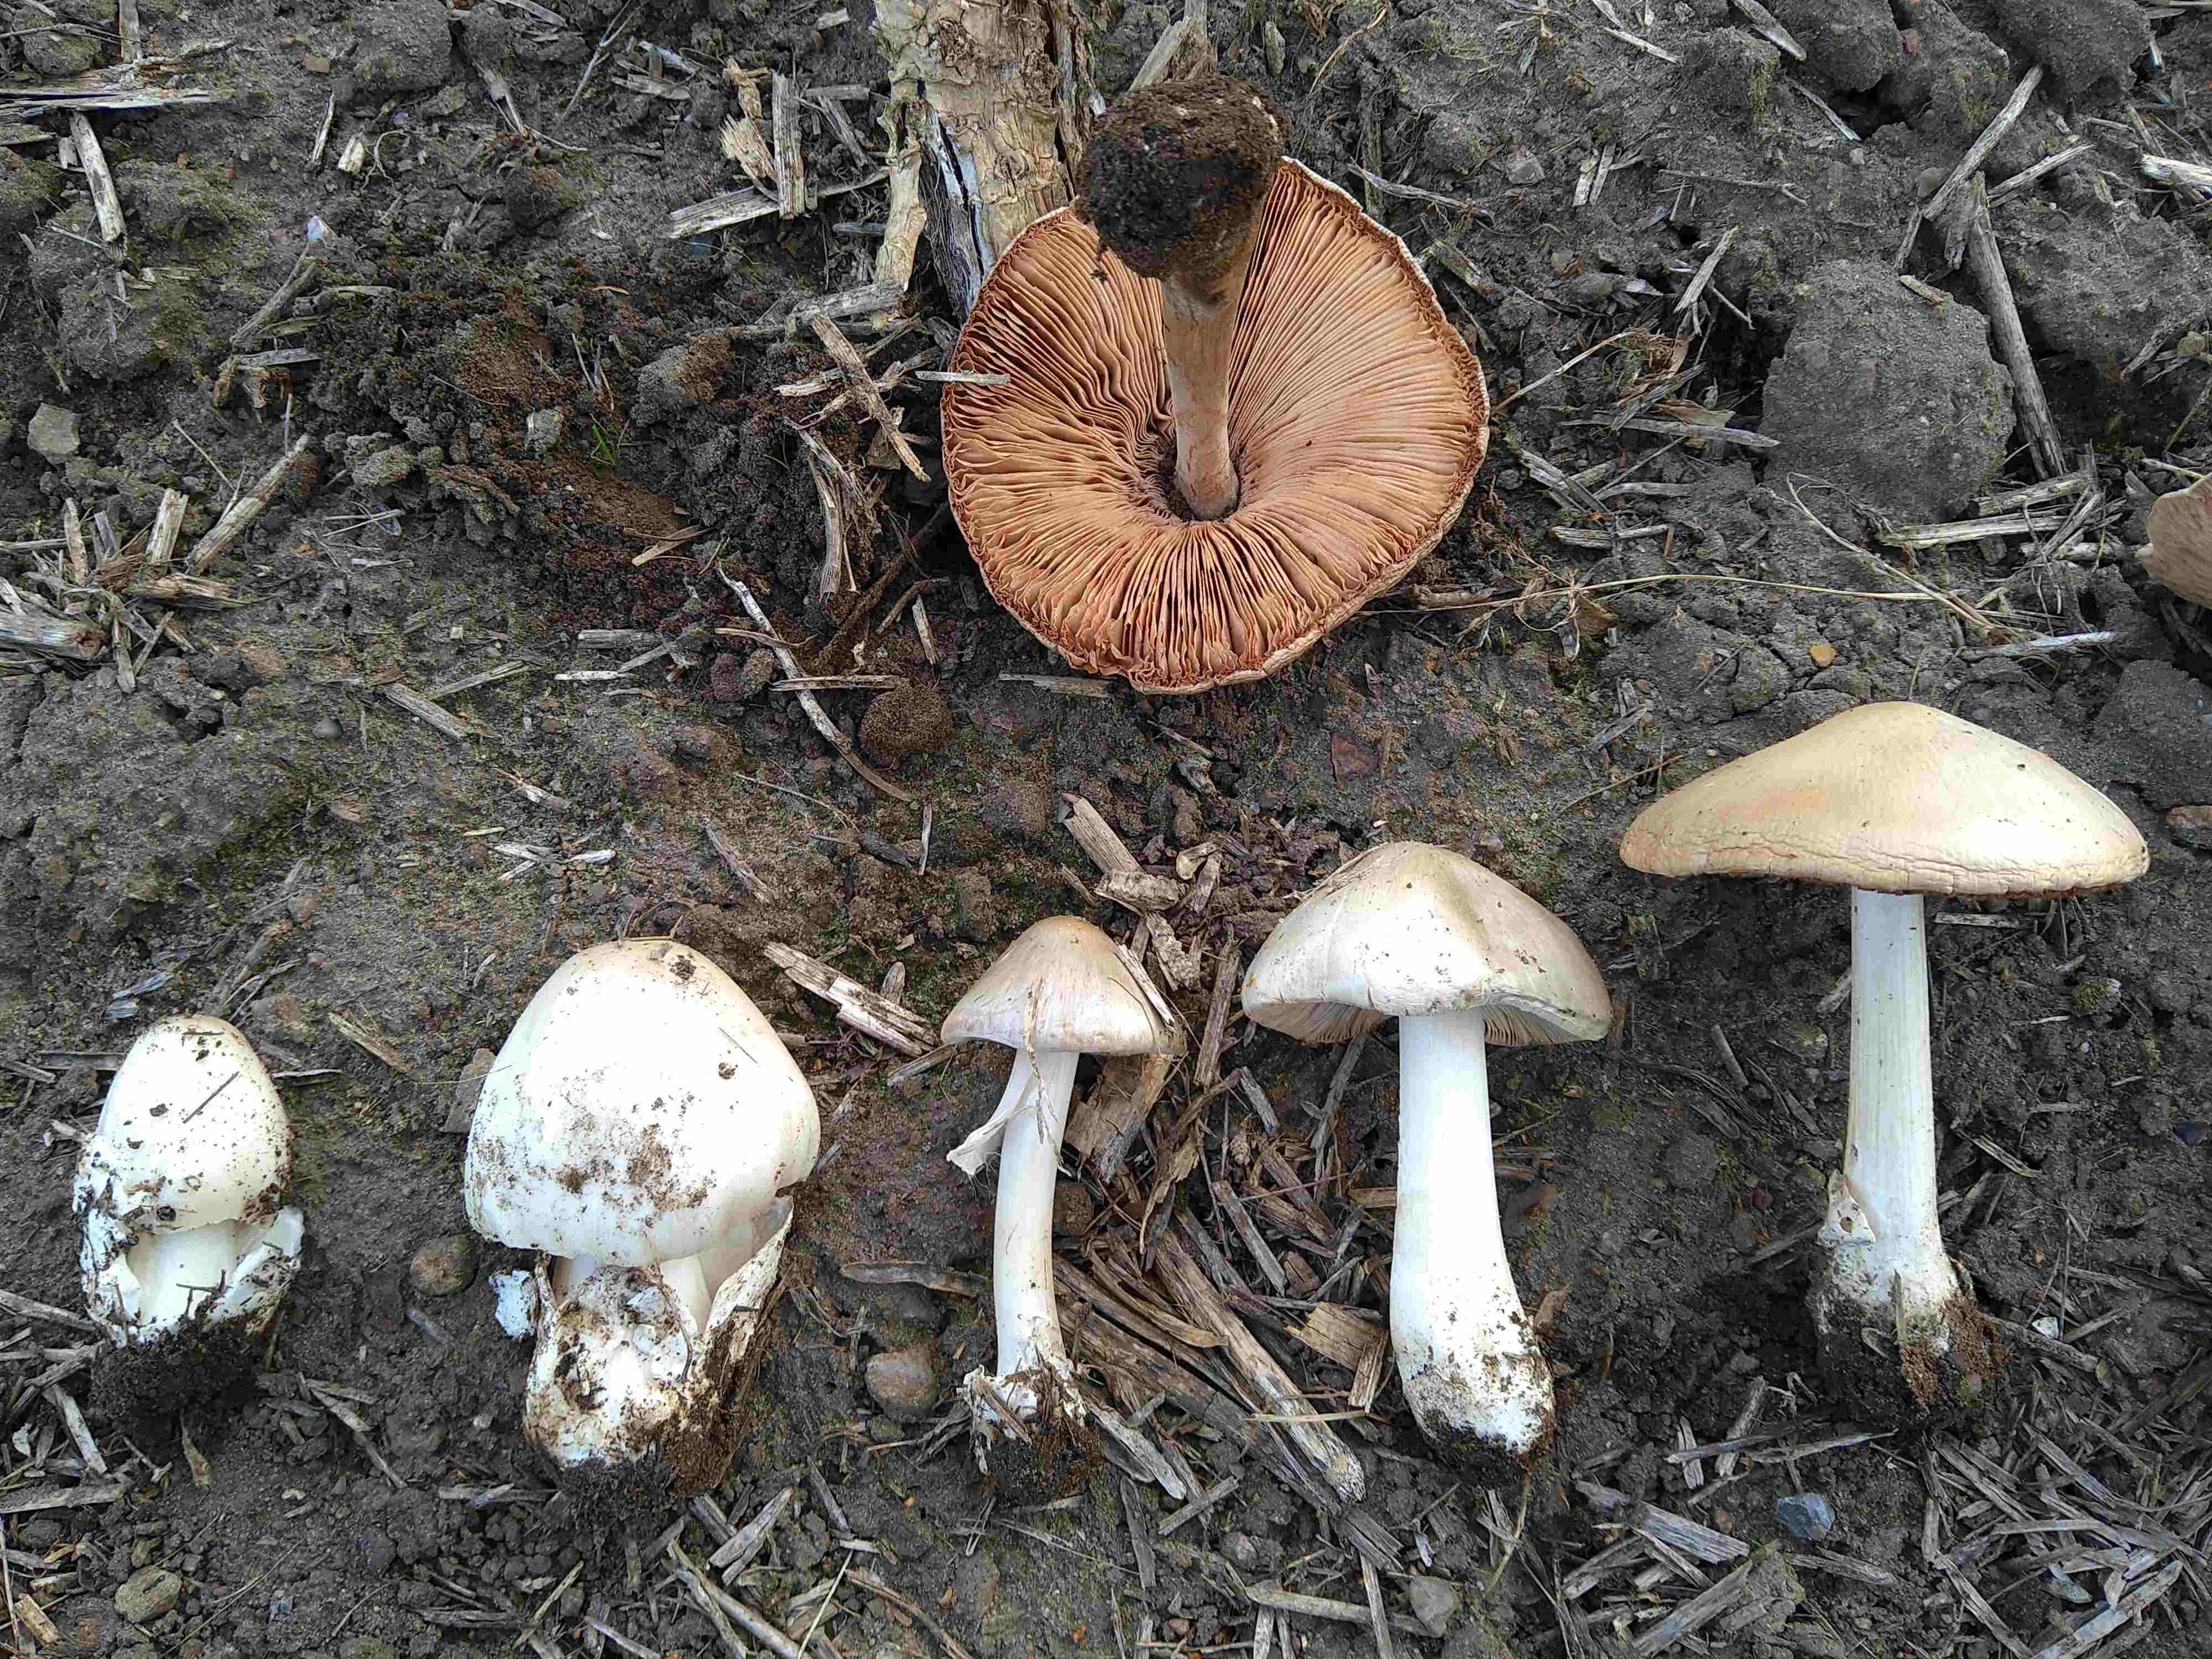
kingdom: Fungi
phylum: Basidiomycota
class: Agaricomycetes
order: Agaricales
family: Pluteaceae
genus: Volvopluteus
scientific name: Volvopluteus gloiocephalus
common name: høj posesvamp
